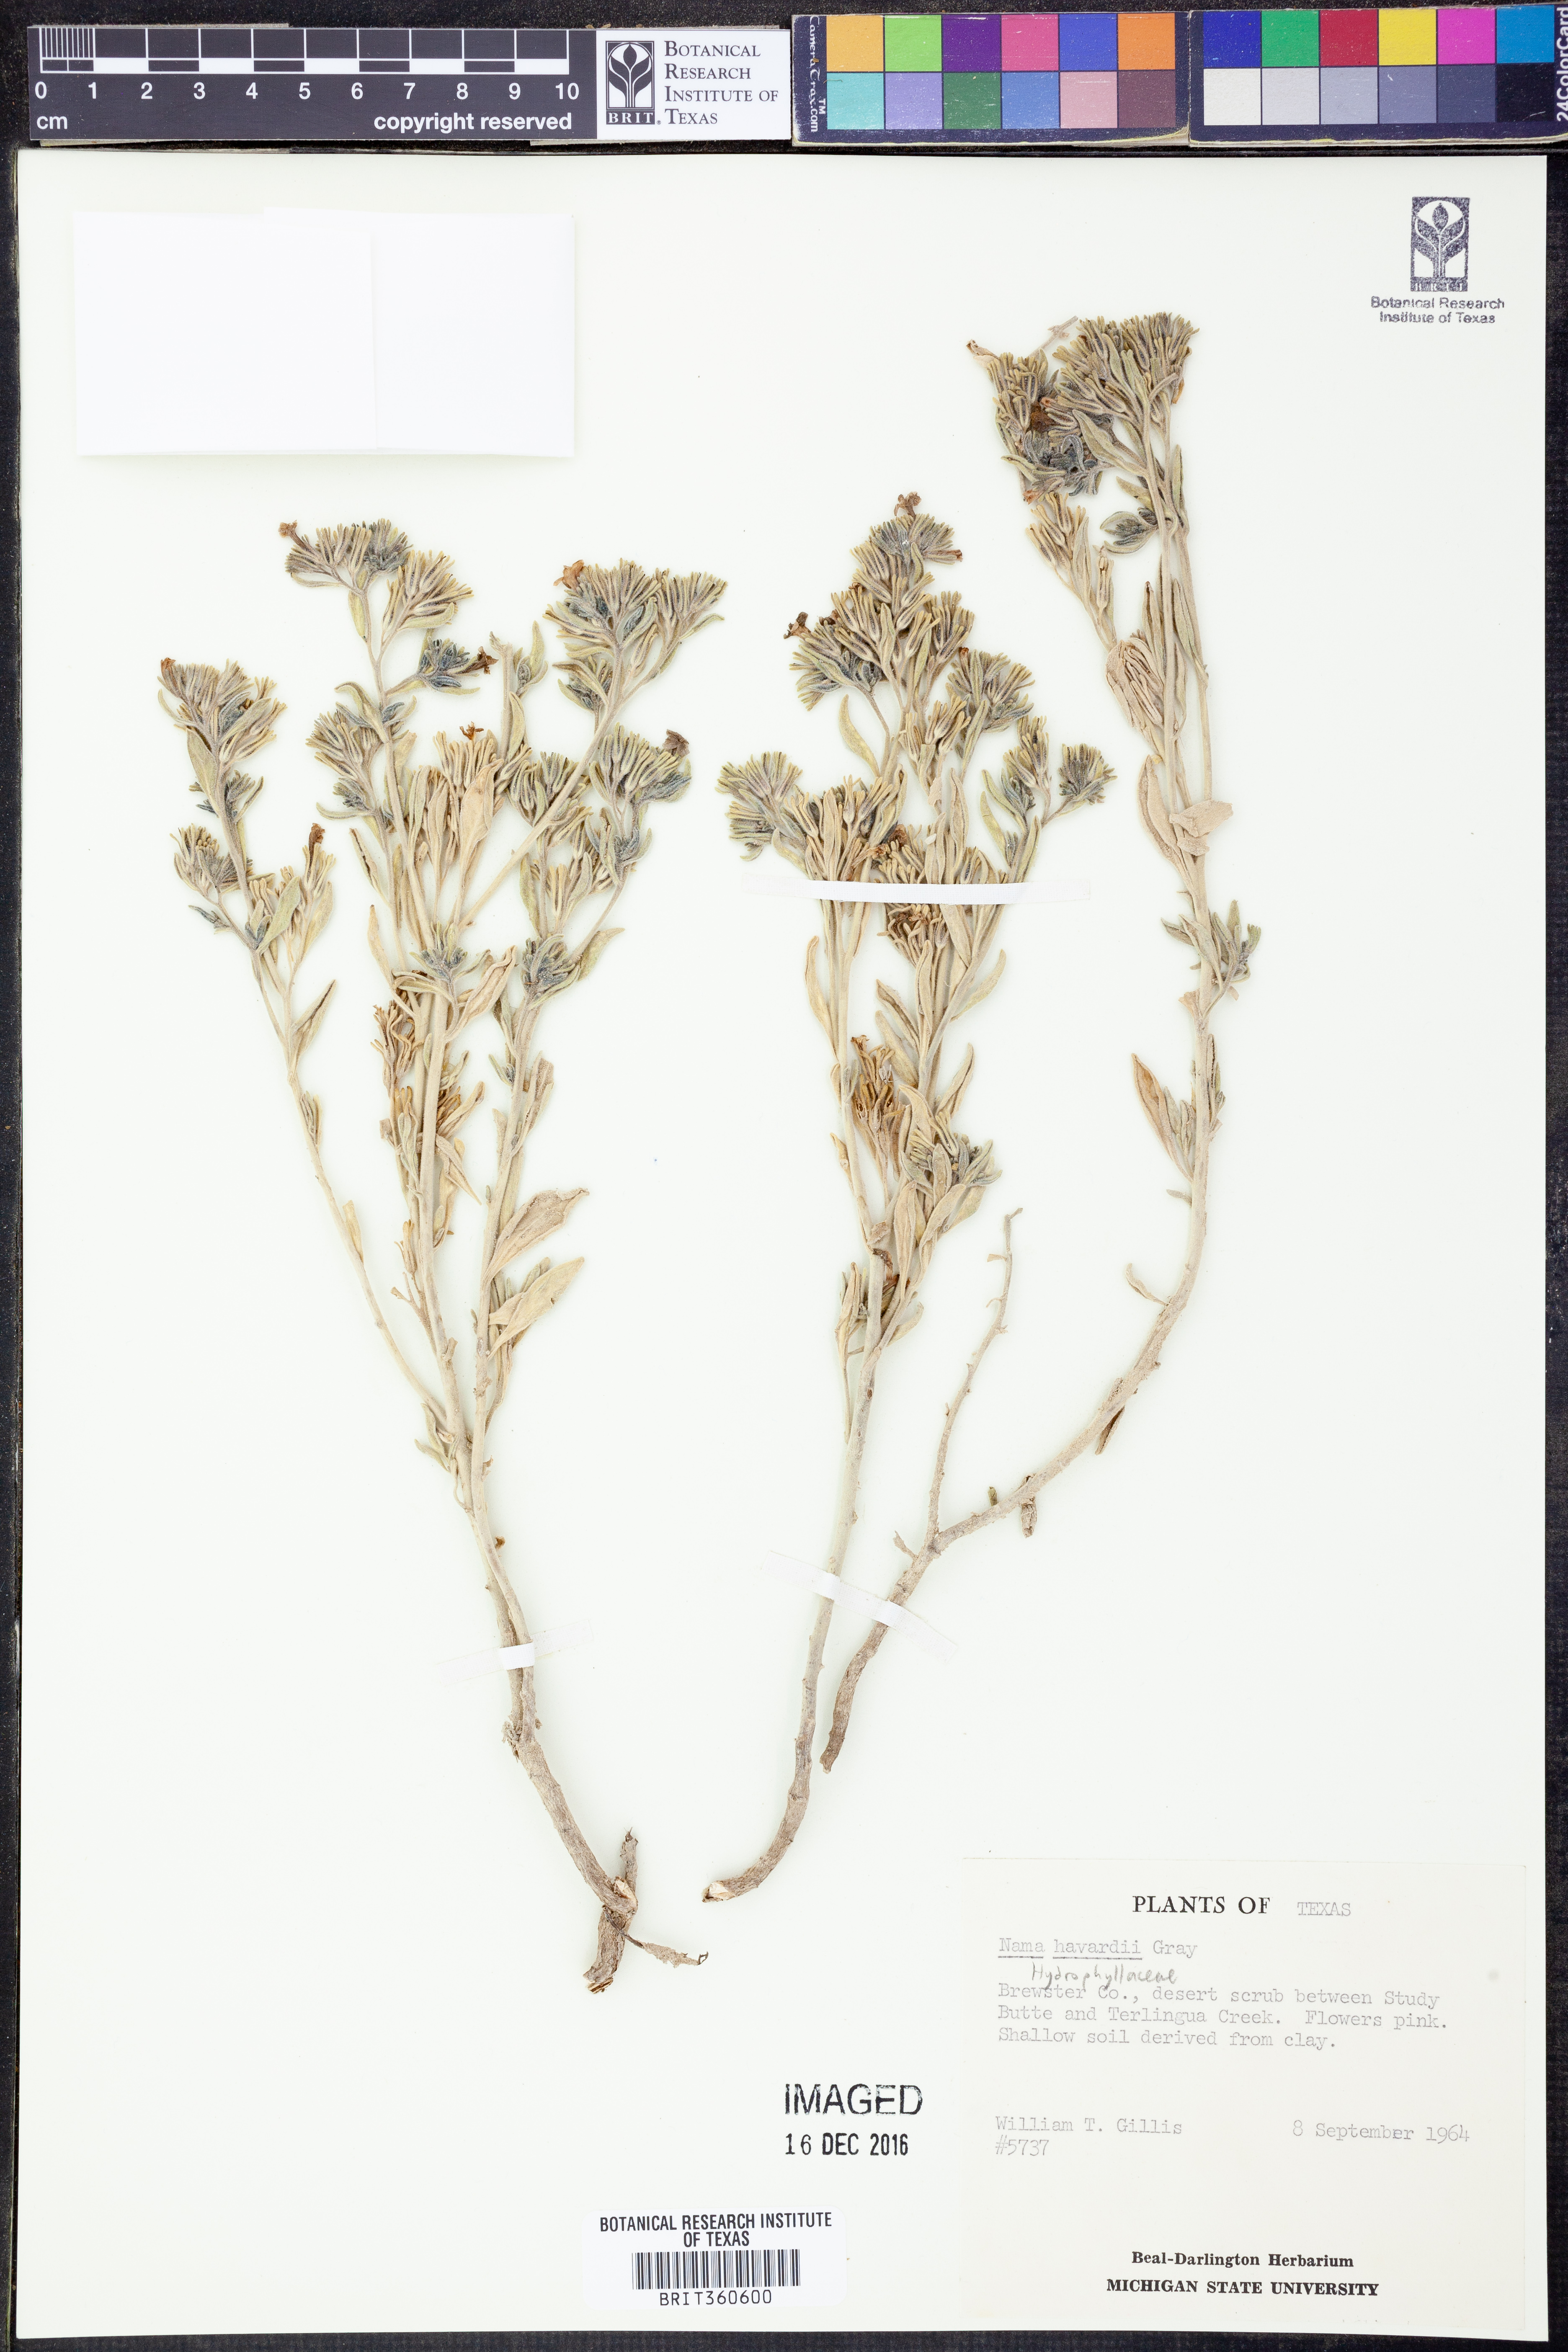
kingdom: Plantae
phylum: Tracheophyta
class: Magnoliopsida
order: Boraginales
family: Namaceae
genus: Nama
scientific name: Nama havardii
